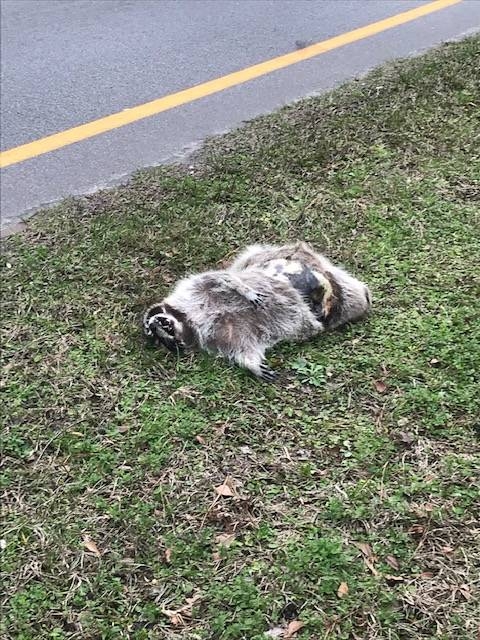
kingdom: Animalia
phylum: Chordata
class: Mammalia
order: Carnivora
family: Procyonidae
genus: Procyon
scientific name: Procyon lotor
